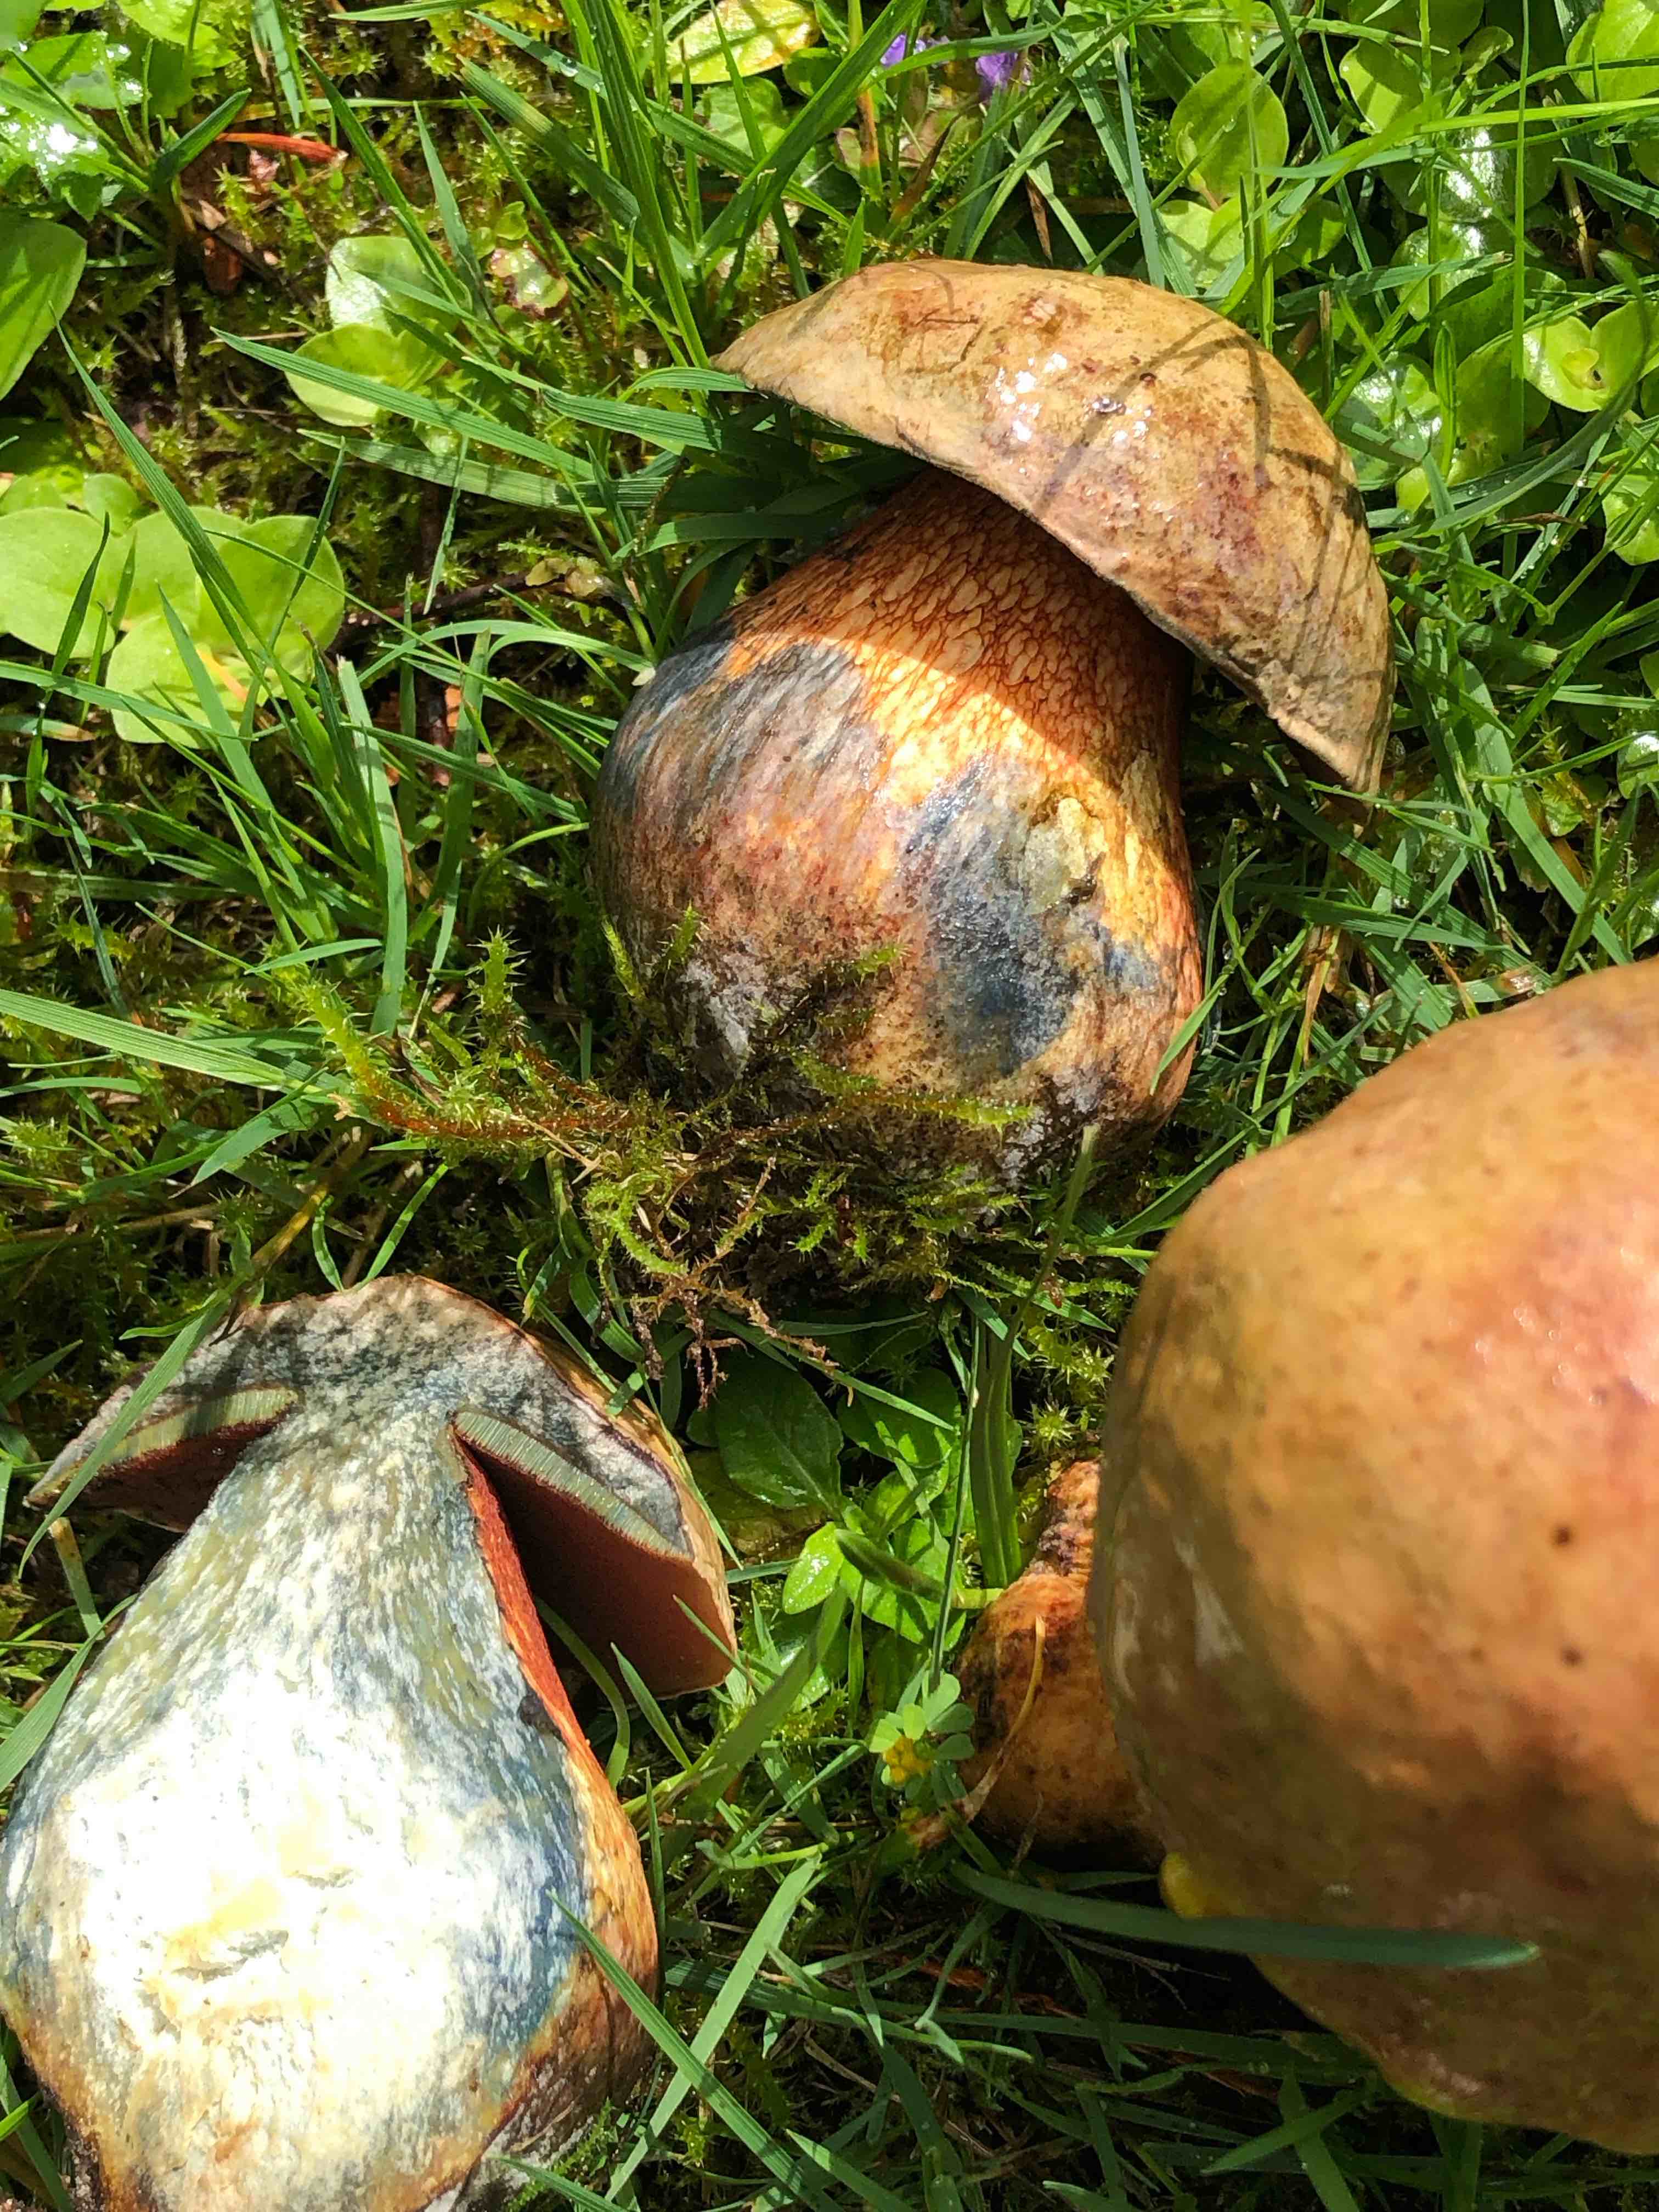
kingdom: Fungi
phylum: Basidiomycota
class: Agaricomycetes
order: Boletales
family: Boletaceae
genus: Suillellus
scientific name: Suillellus luridus
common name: netstokket indigorørhat
